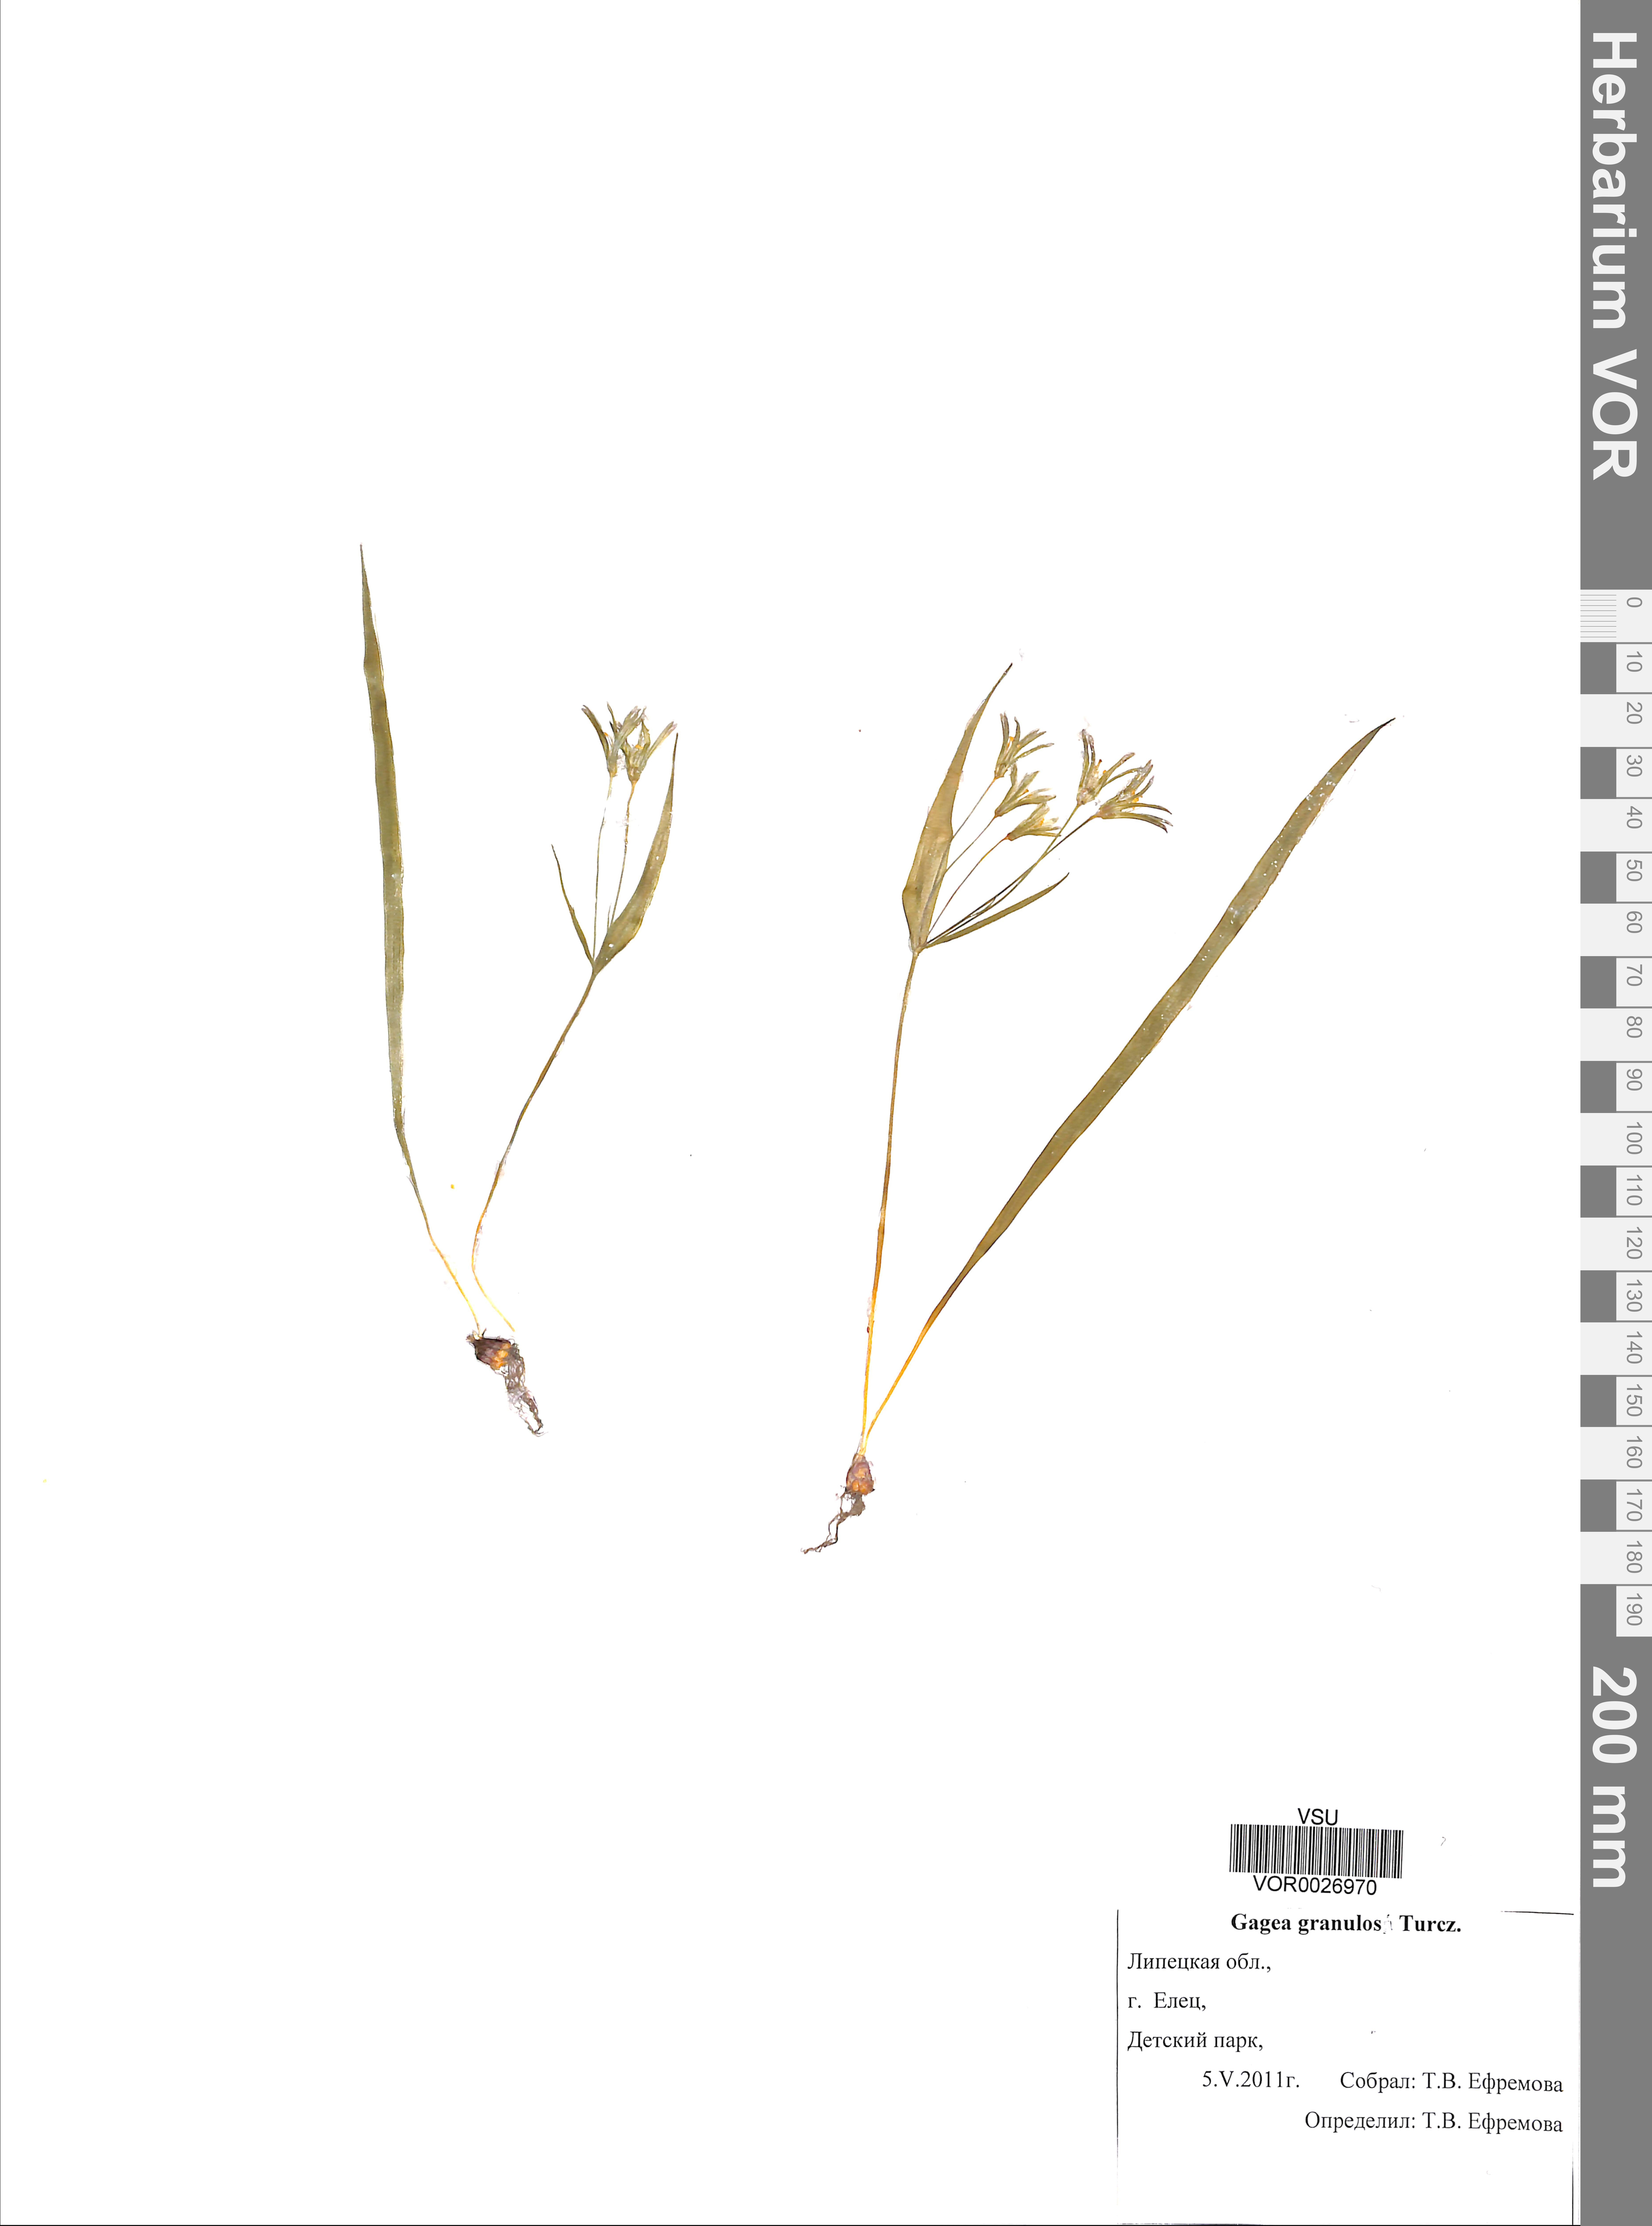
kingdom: Plantae
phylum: Tracheophyta
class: Liliopsida
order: Liliales
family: Liliaceae
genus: Gagea
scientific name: Gagea granulosa
